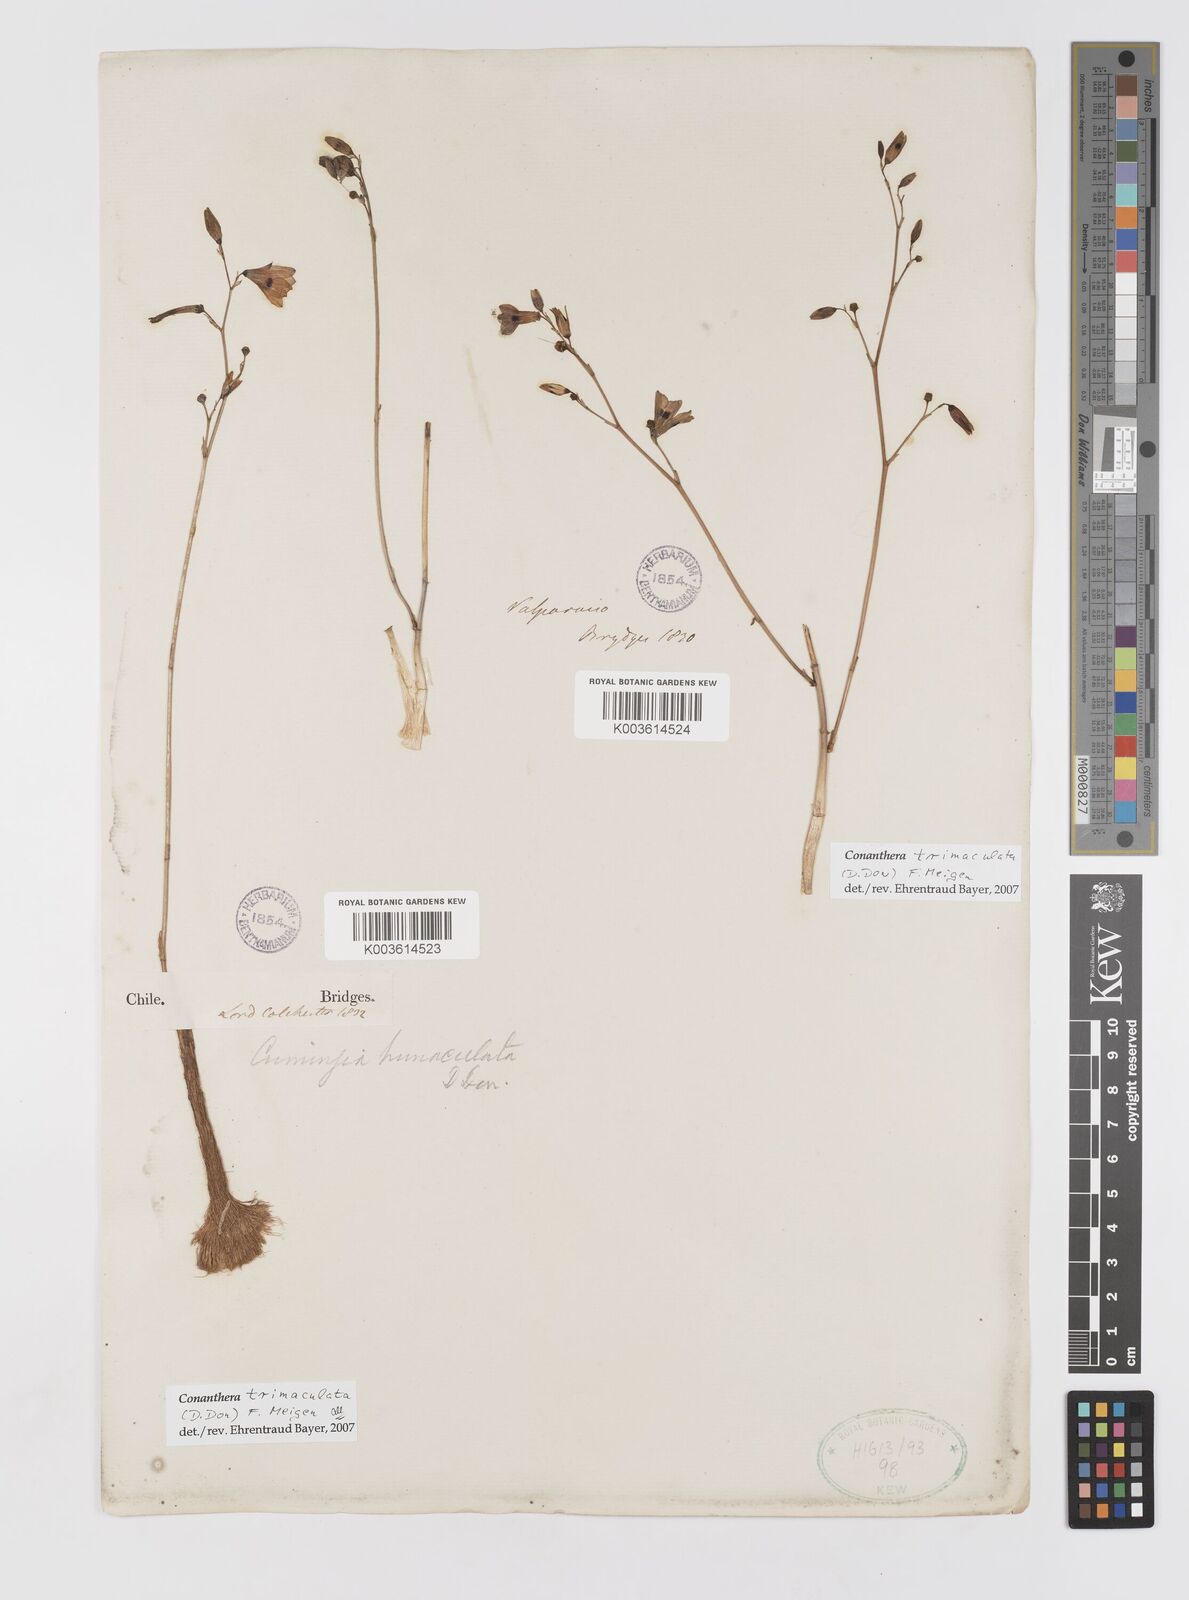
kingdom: Plantae
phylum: Tracheophyta
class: Liliopsida
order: Asparagales
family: Tecophilaeaceae
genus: Conanthera
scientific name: Conanthera trimaculata
